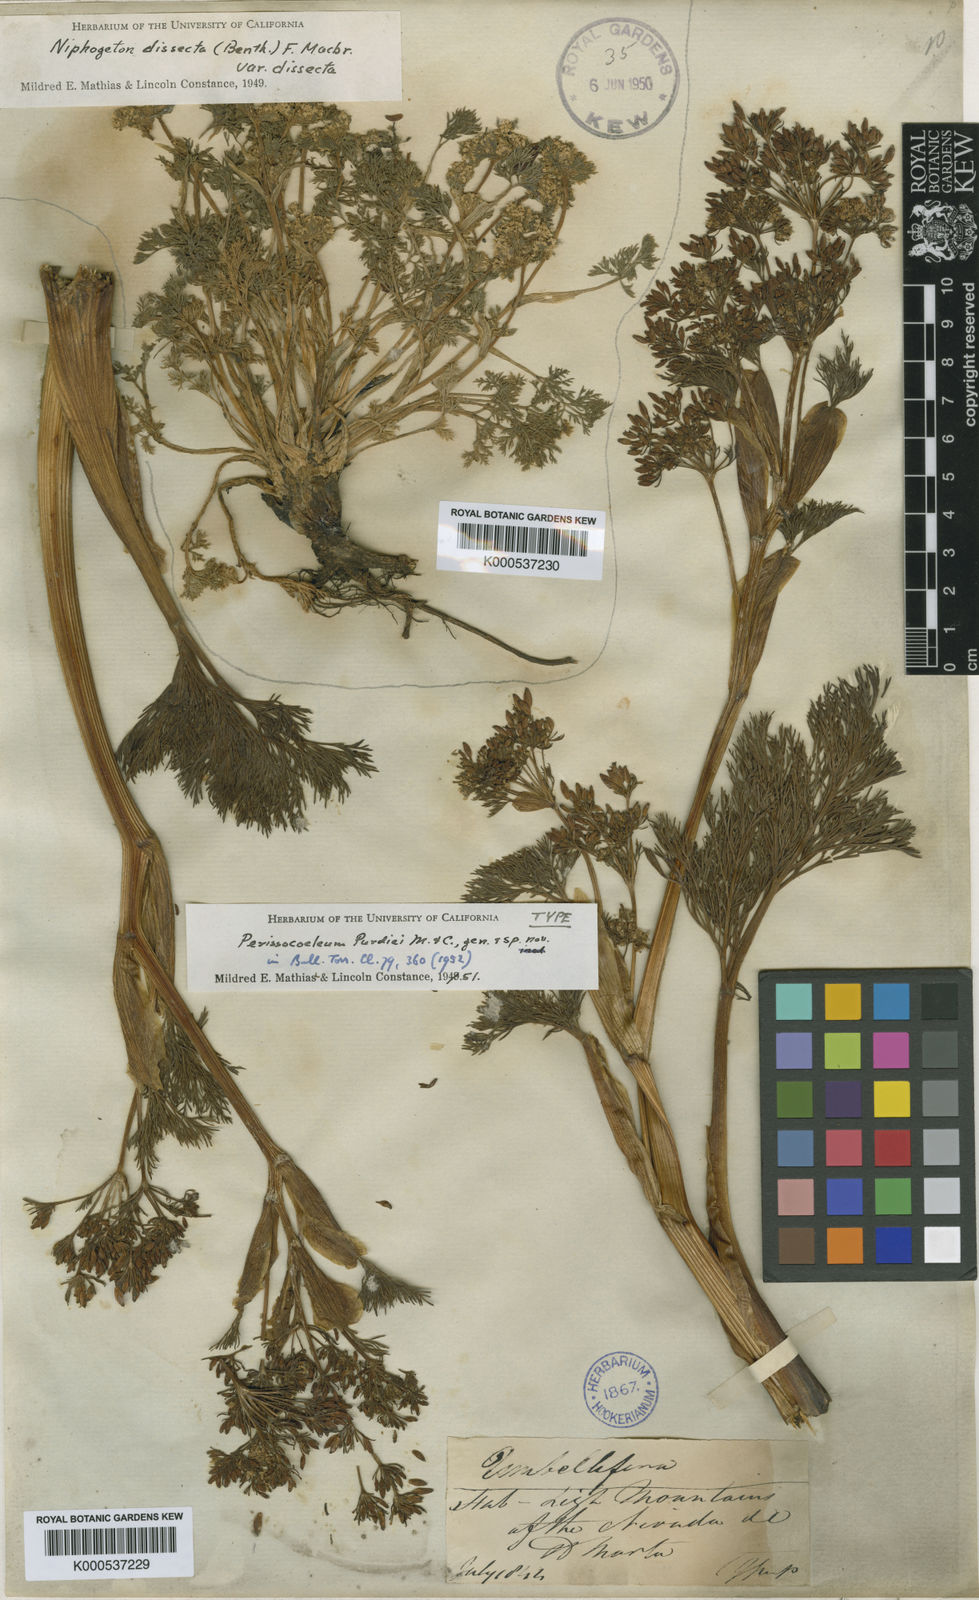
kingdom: Plantae
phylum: Tracheophyta
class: Magnoliopsida
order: Apiales
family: Apiaceae
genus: Perissocoeleum
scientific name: Perissocoeleum purdiei
